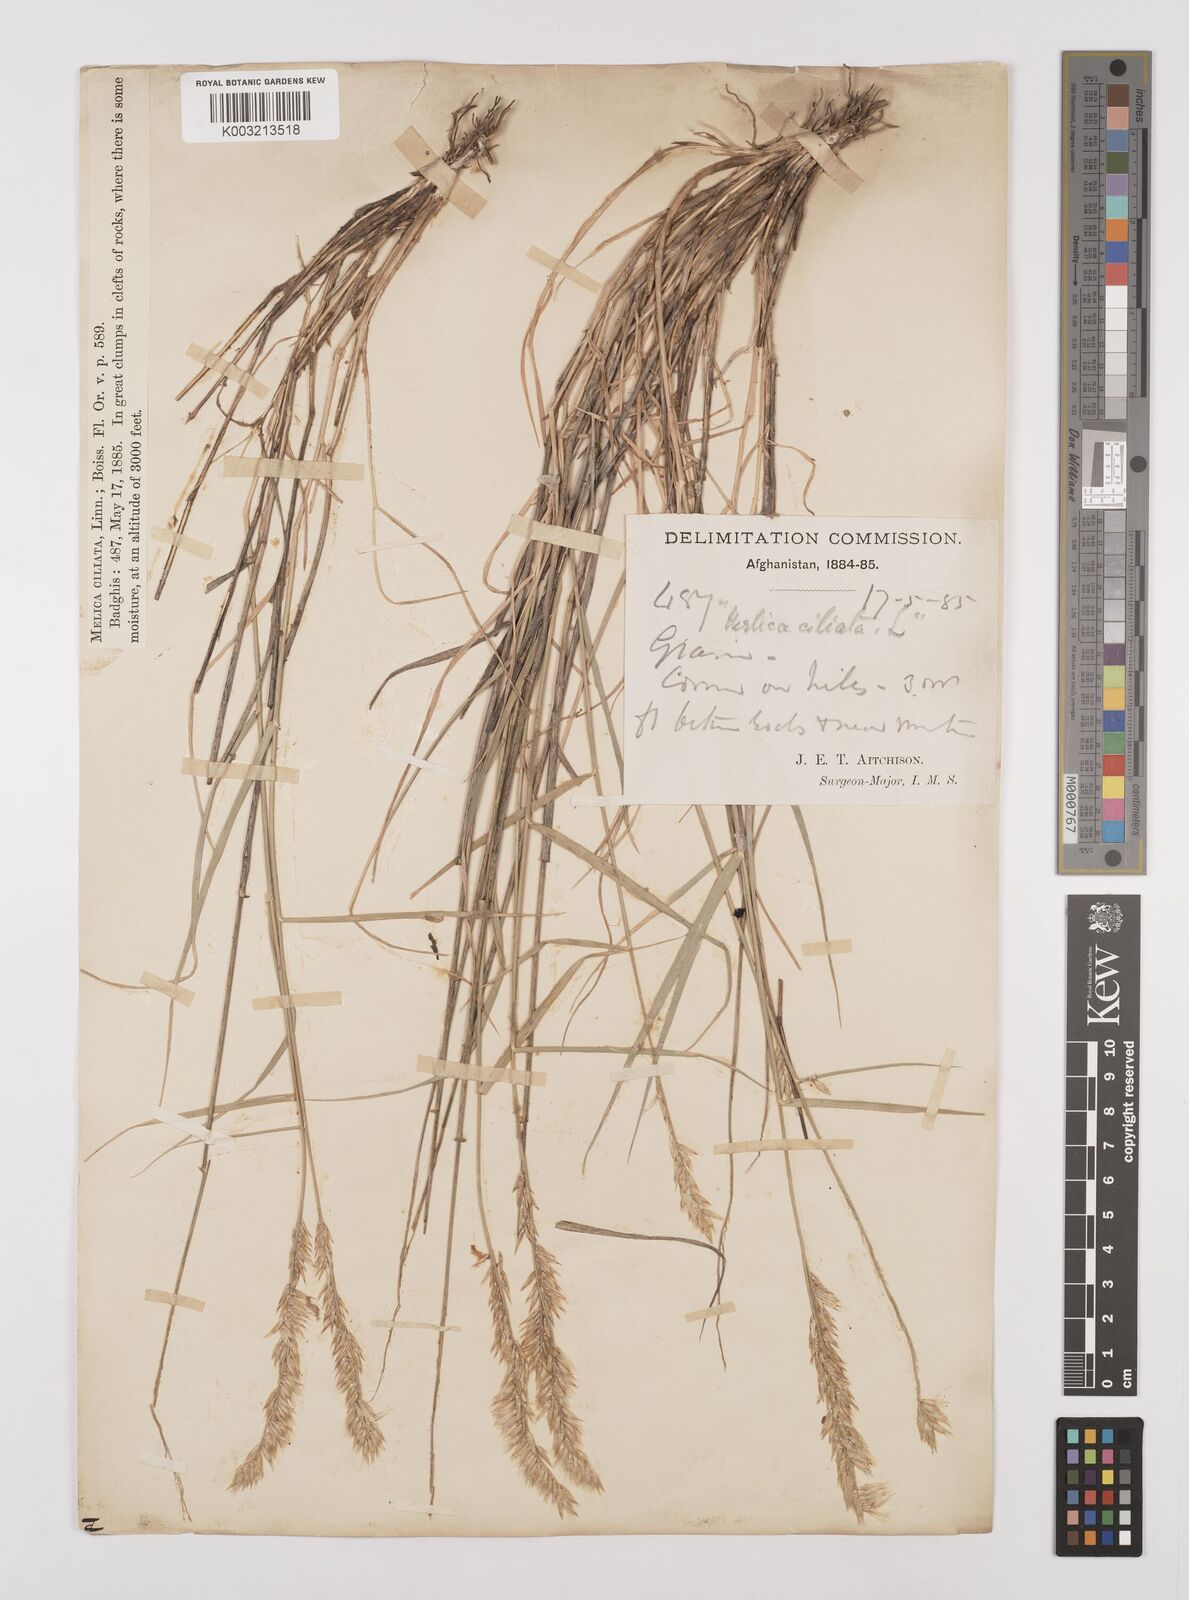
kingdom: Plantae
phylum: Tracheophyta
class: Liliopsida
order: Poales
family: Poaceae
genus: Melica
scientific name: Melica persica
